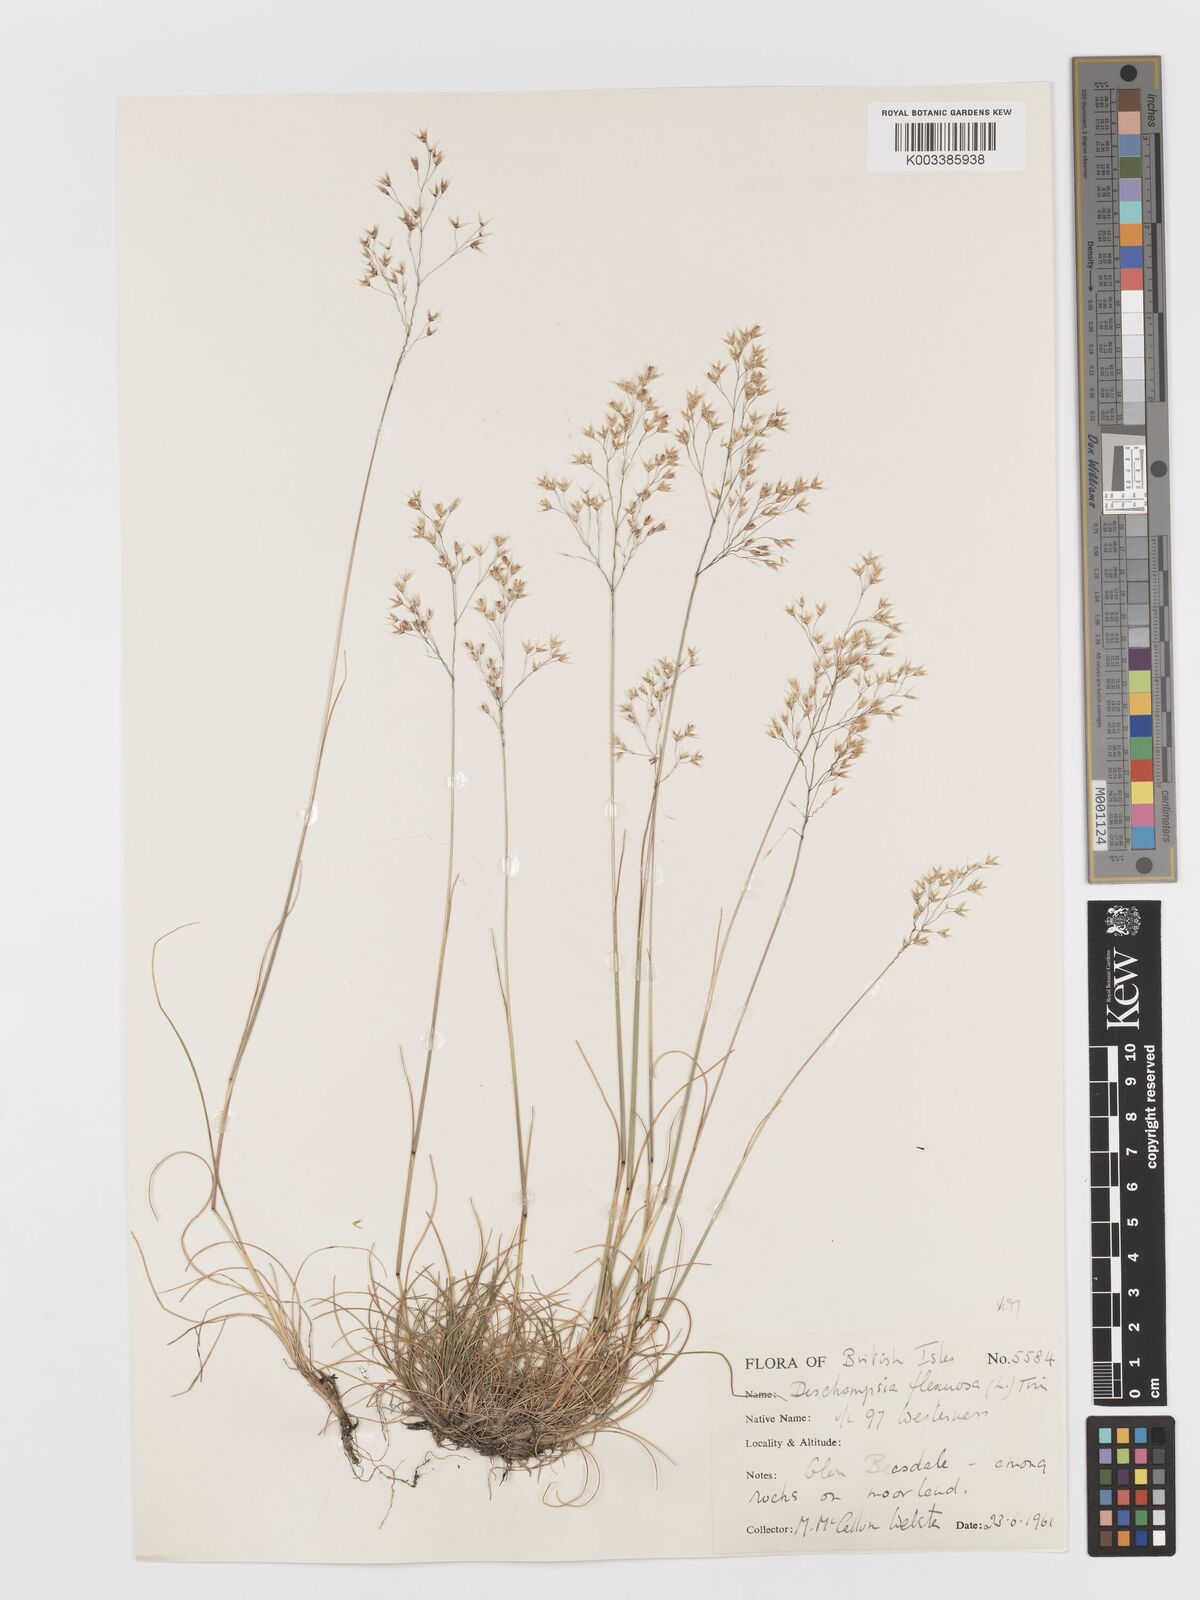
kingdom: Plantae
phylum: Tracheophyta
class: Liliopsida
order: Poales
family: Poaceae
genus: Avenella
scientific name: Avenella flexuosa
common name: Wavy hairgrass
